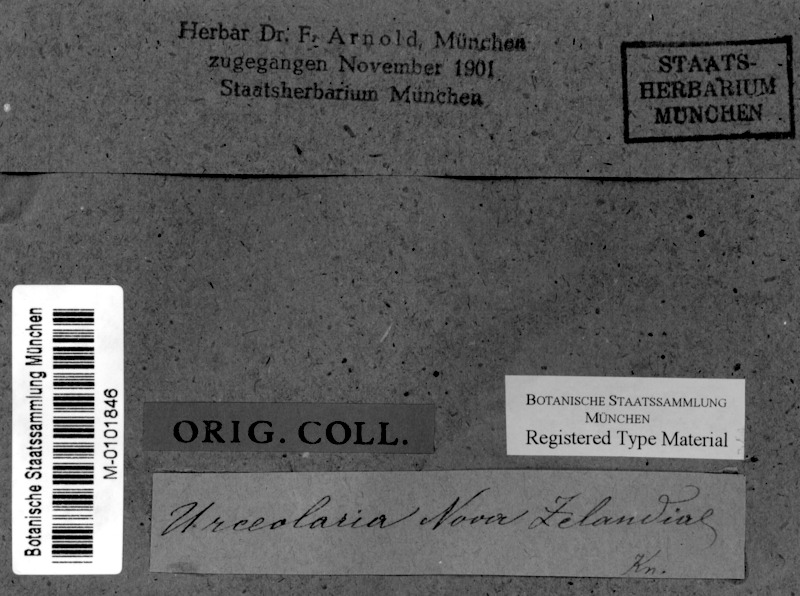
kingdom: Fungi
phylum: Ascomycota
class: Lecanoromycetes
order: Ostropales
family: Graphidaceae
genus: Diploschistes
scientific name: Diploschistes euganeus
